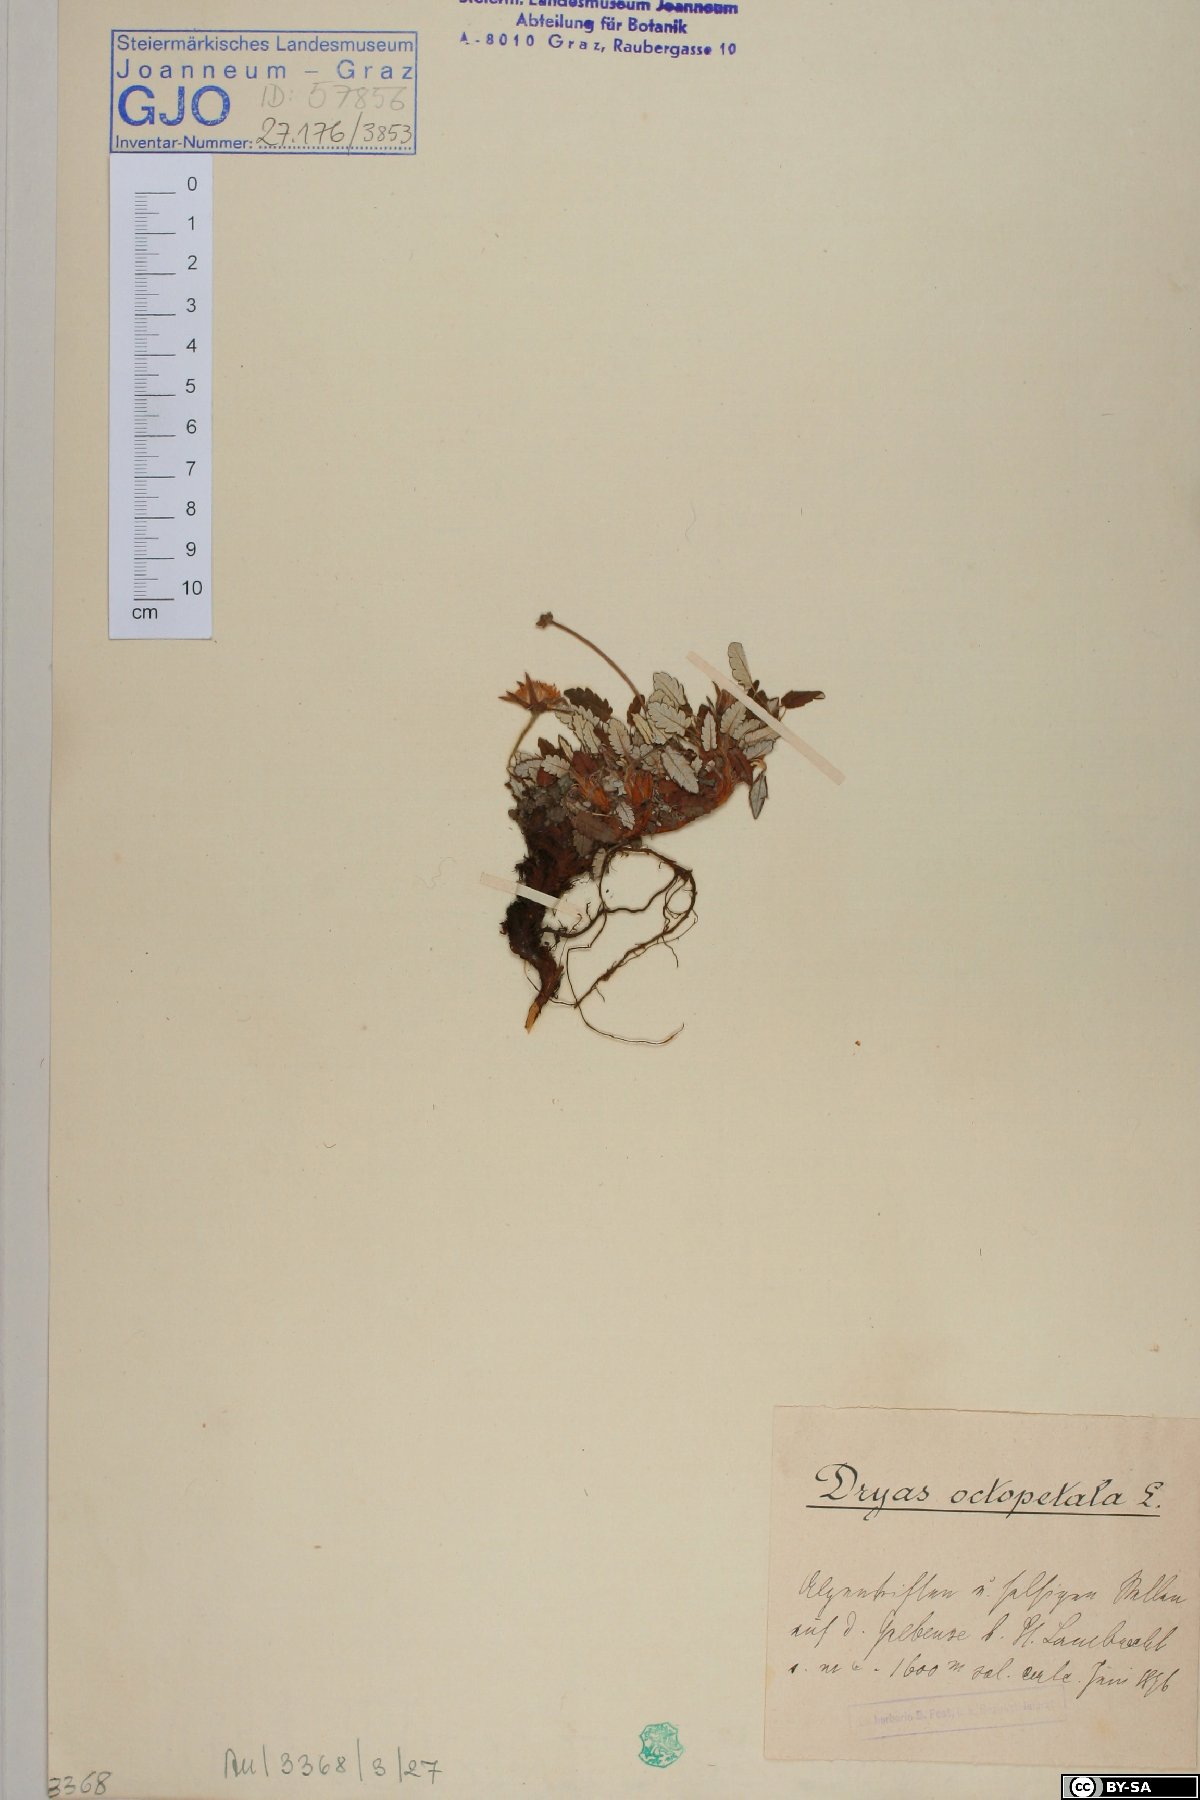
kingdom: Plantae
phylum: Tracheophyta
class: Magnoliopsida
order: Rosales
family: Rosaceae
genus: Dryas
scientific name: Dryas octopetala
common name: Eight-petal mountain-avens
